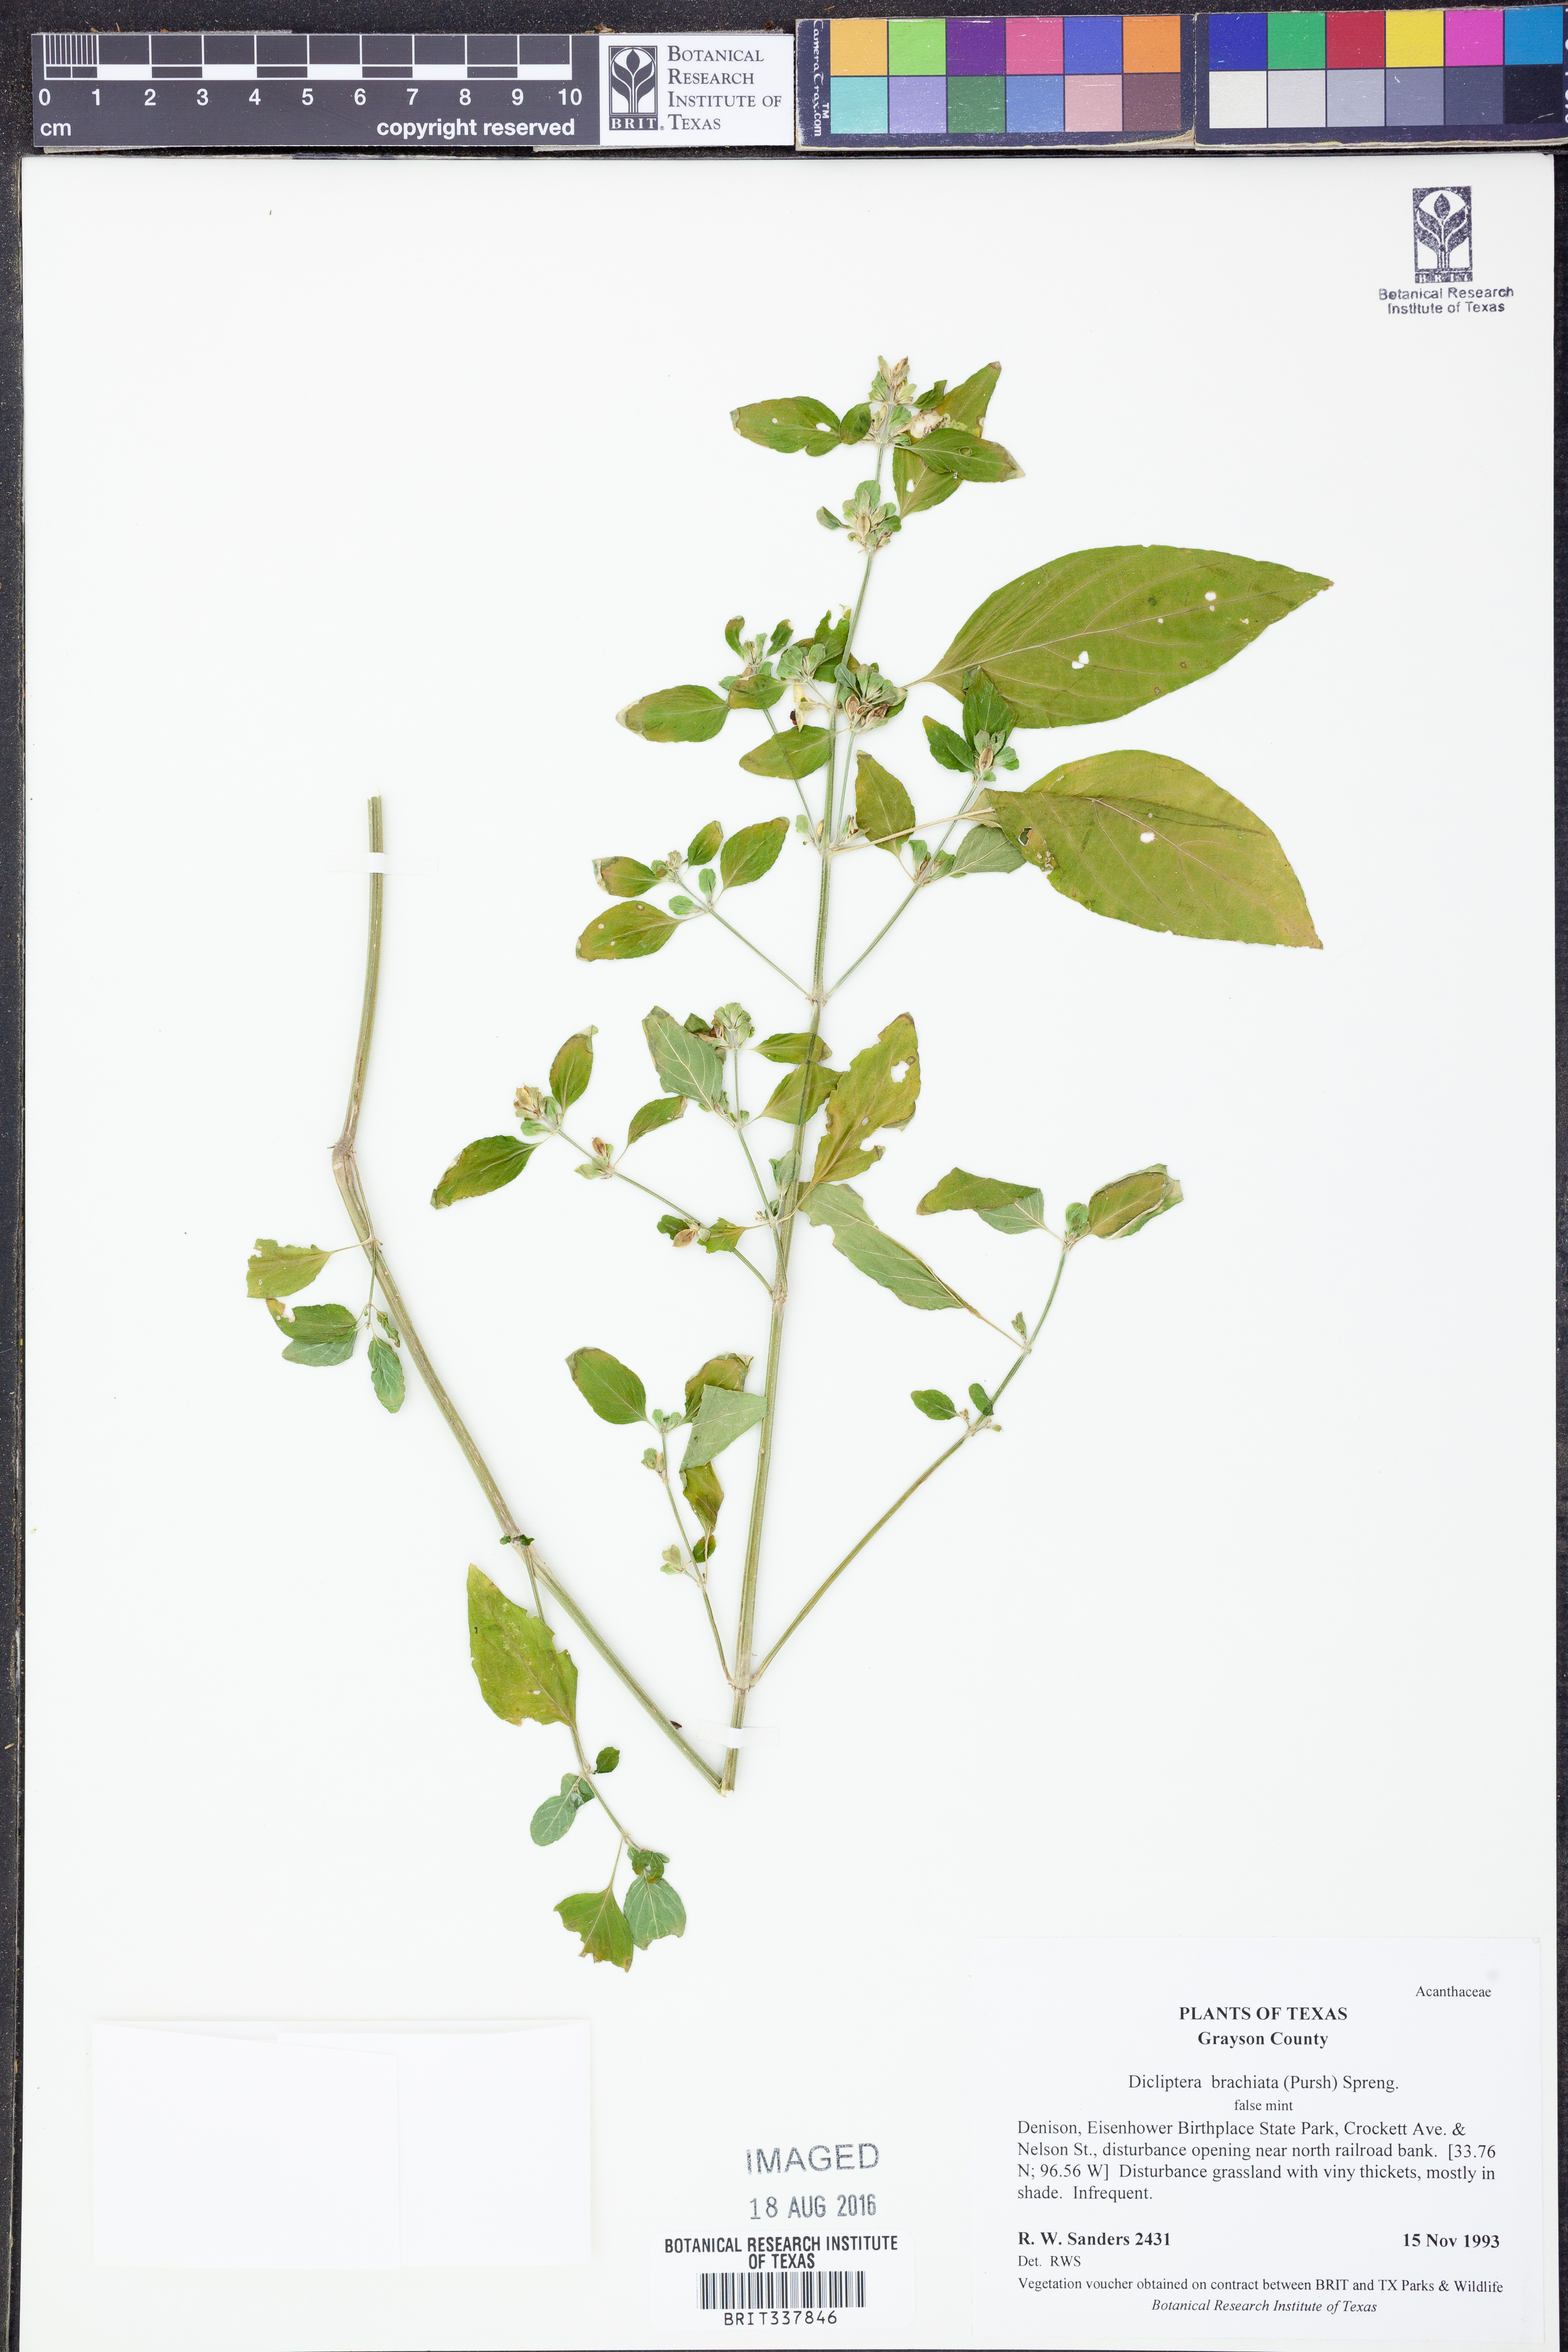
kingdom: Plantae
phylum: Tracheophyta
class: Magnoliopsida
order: Lamiales
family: Acanthaceae
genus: Dicliptera
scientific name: Dicliptera brachiata
